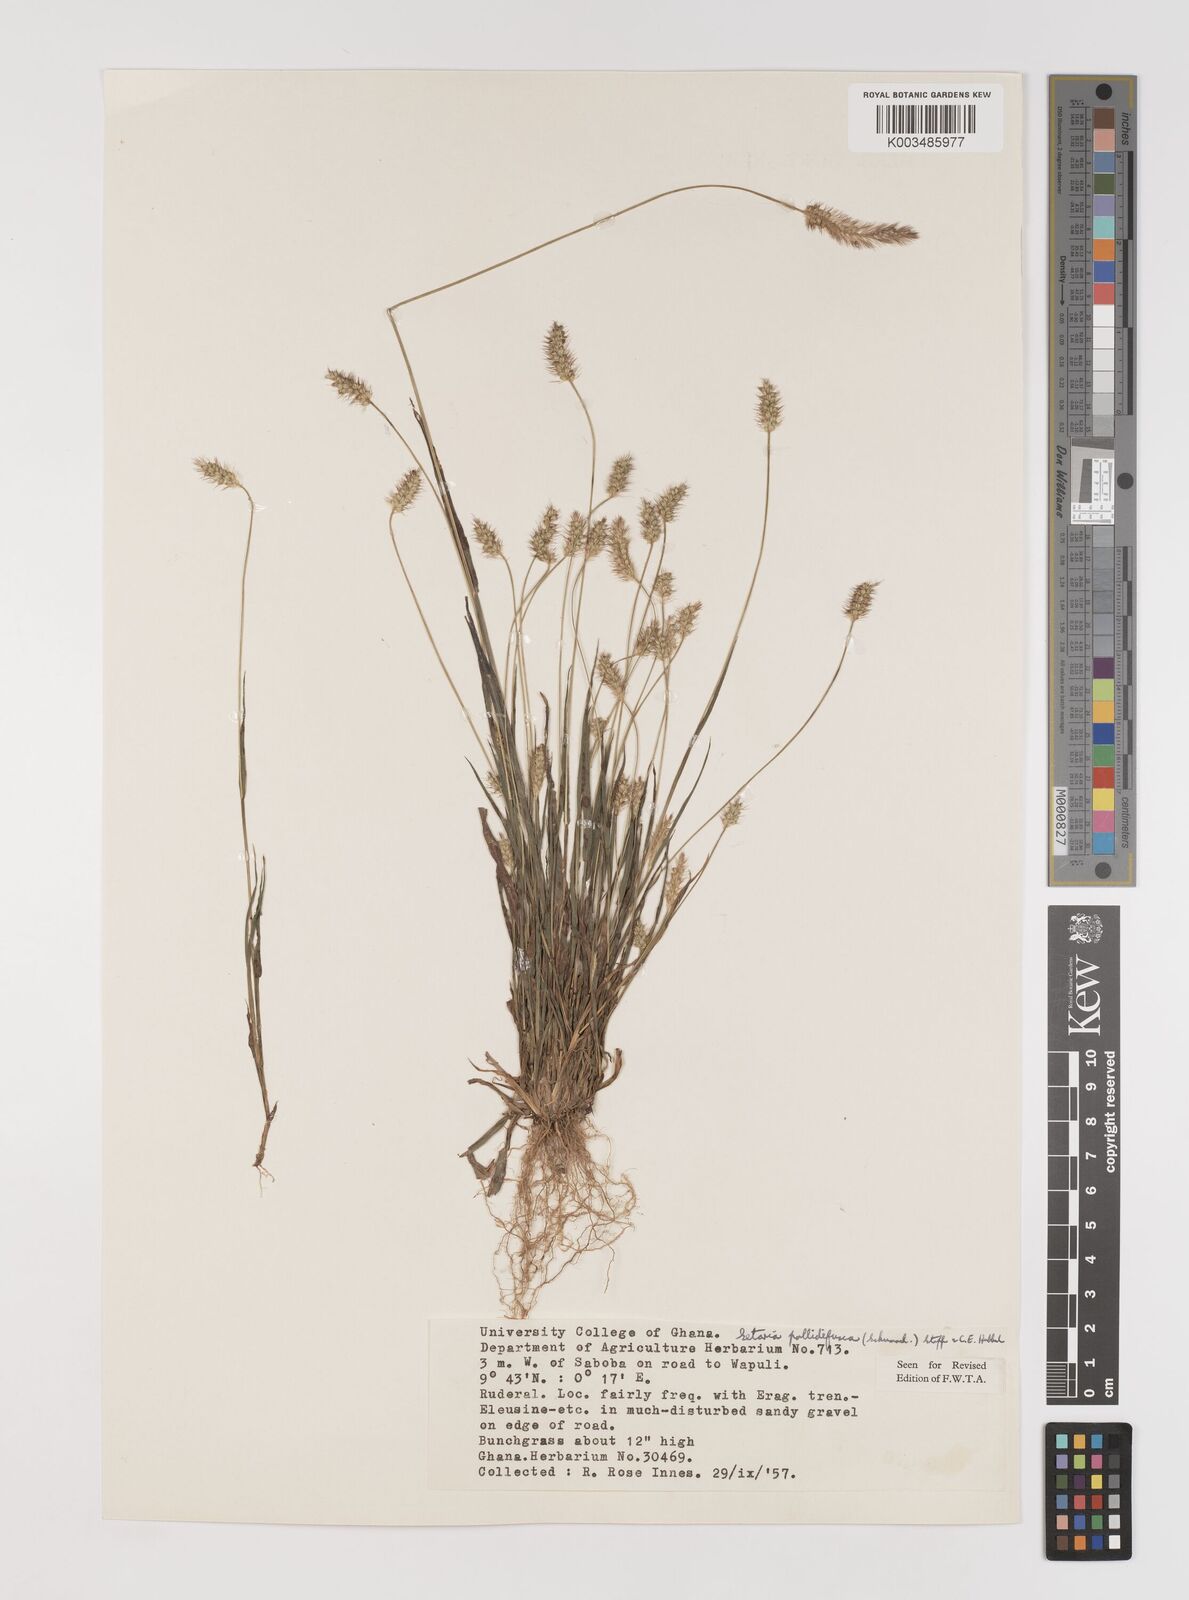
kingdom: Plantae
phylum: Tracheophyta
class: Liliopsida
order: Poales
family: Poaceae
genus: Setaria
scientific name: Setaria pumila
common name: Yellow bristle-grass
